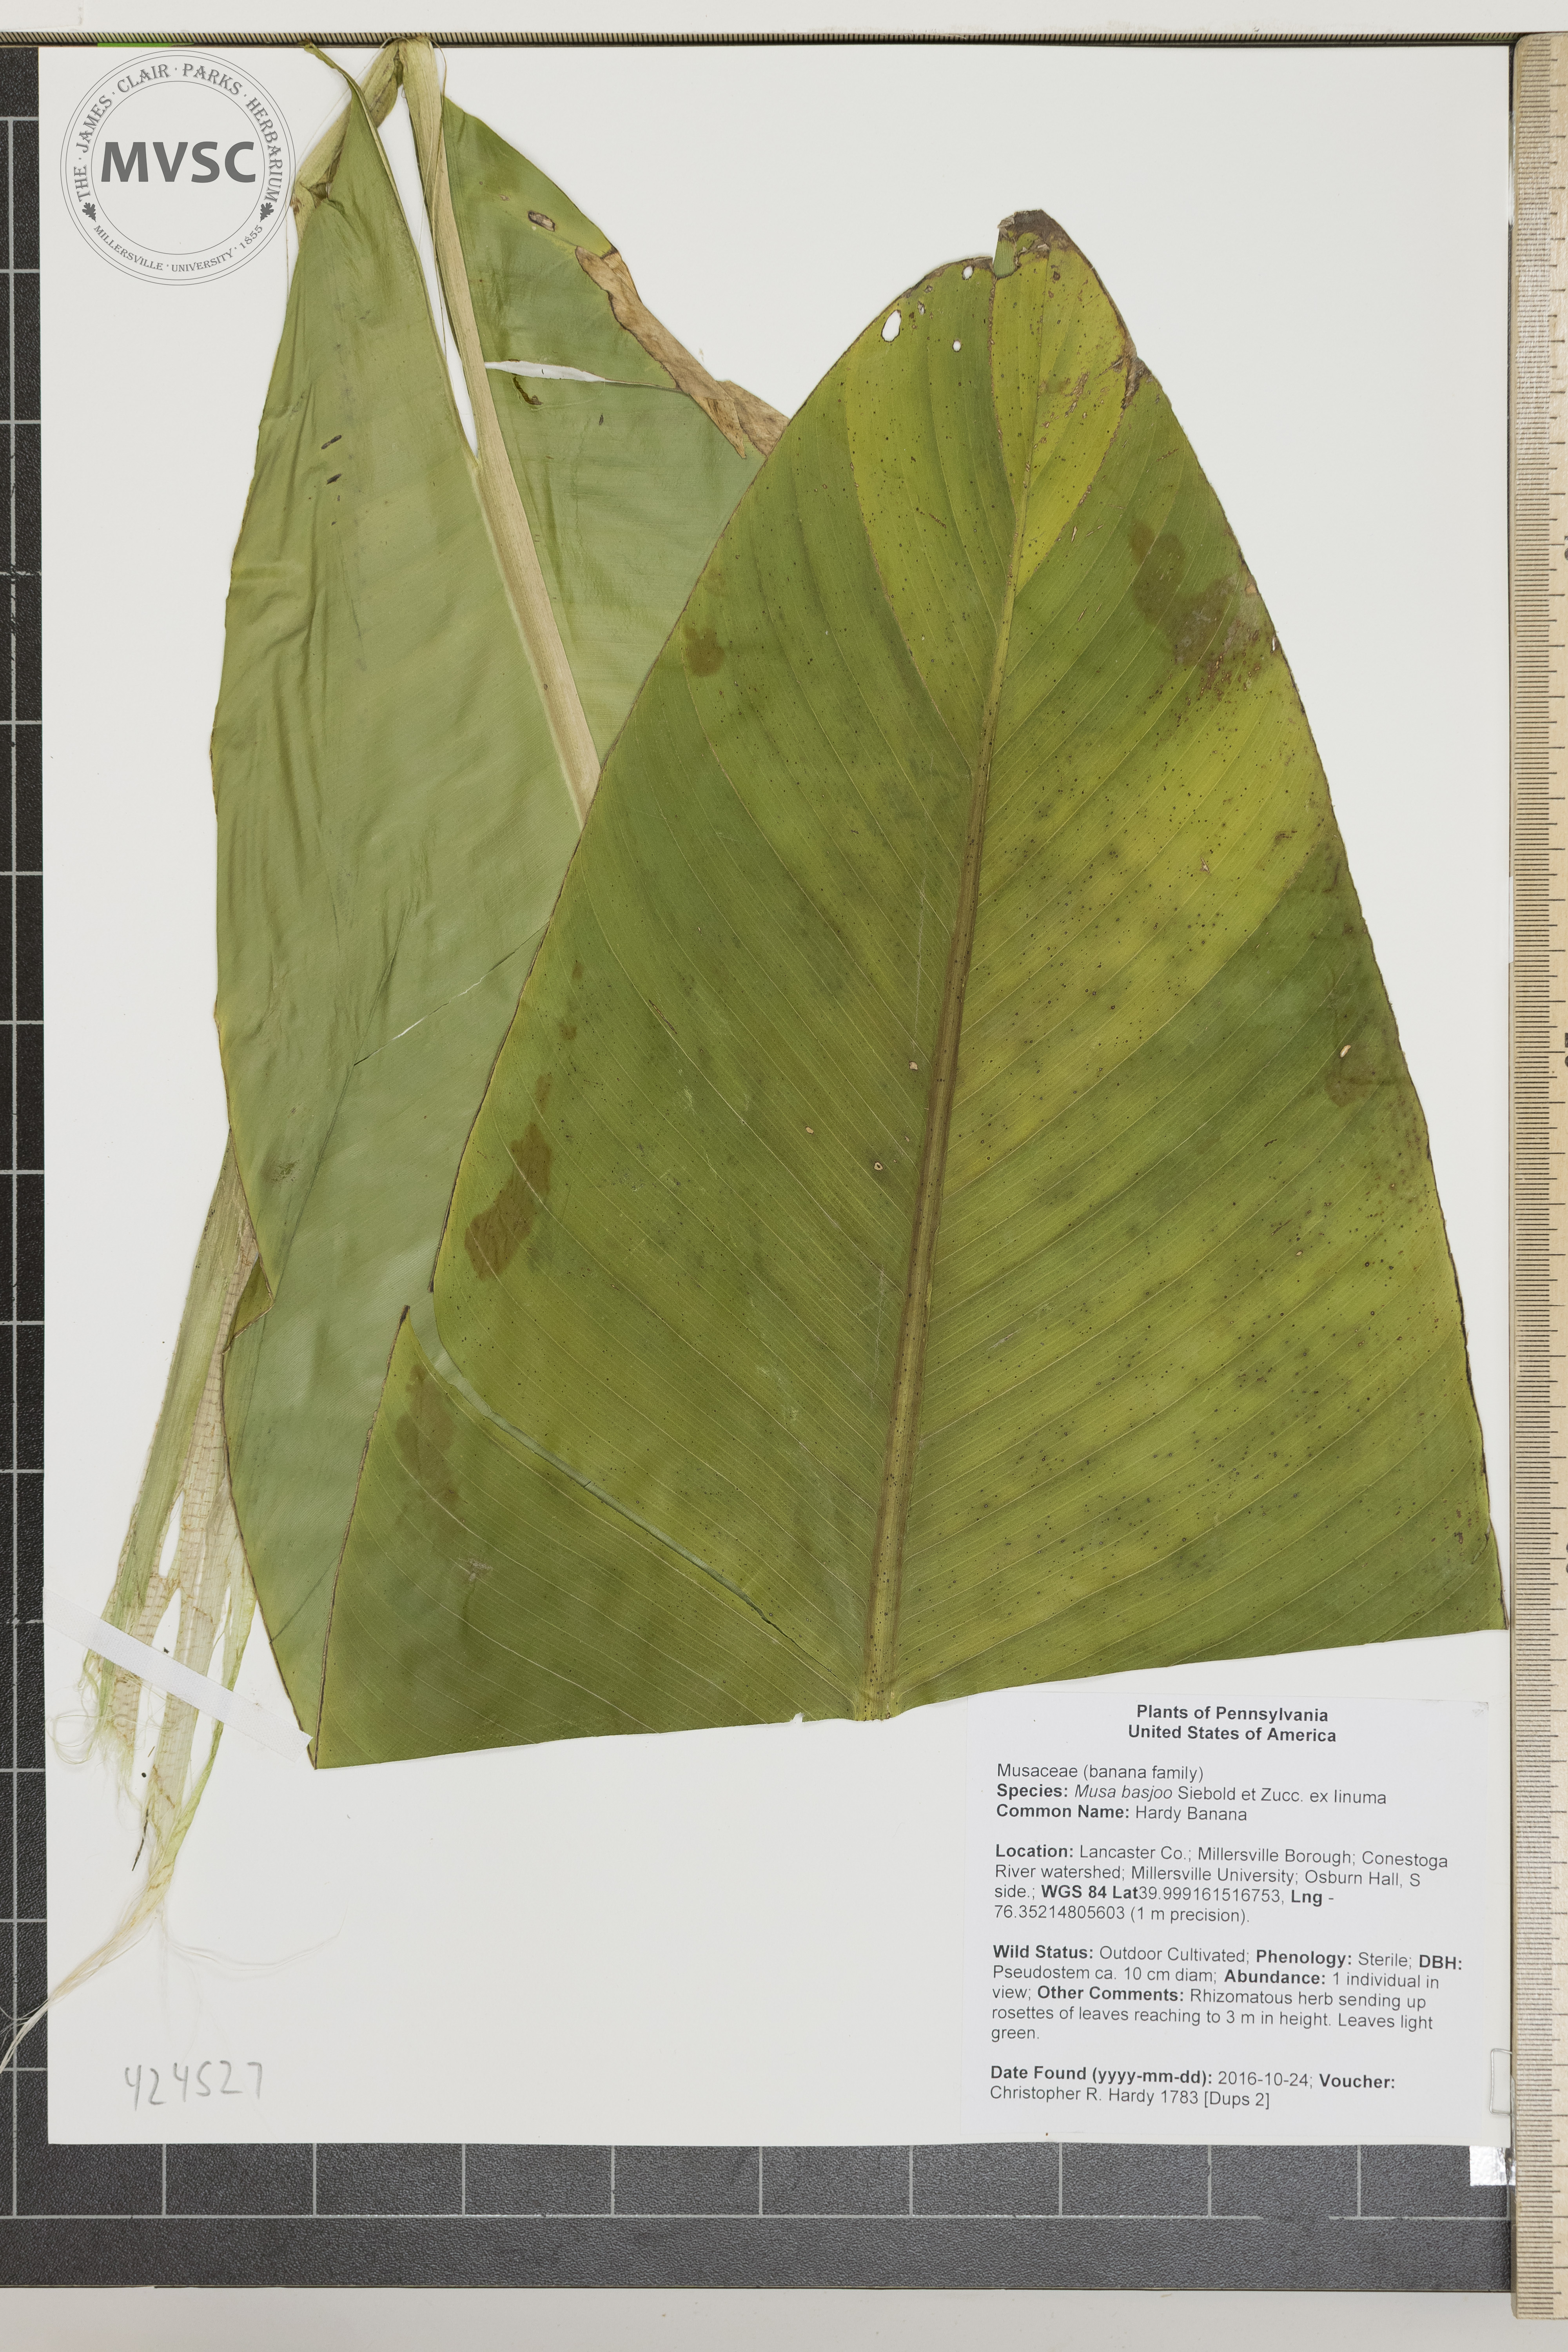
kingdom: Plantae
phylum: Tracheophyta
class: Liliopsida
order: Zingiberales
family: Musaceae
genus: Musa
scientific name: Musa basjoo
